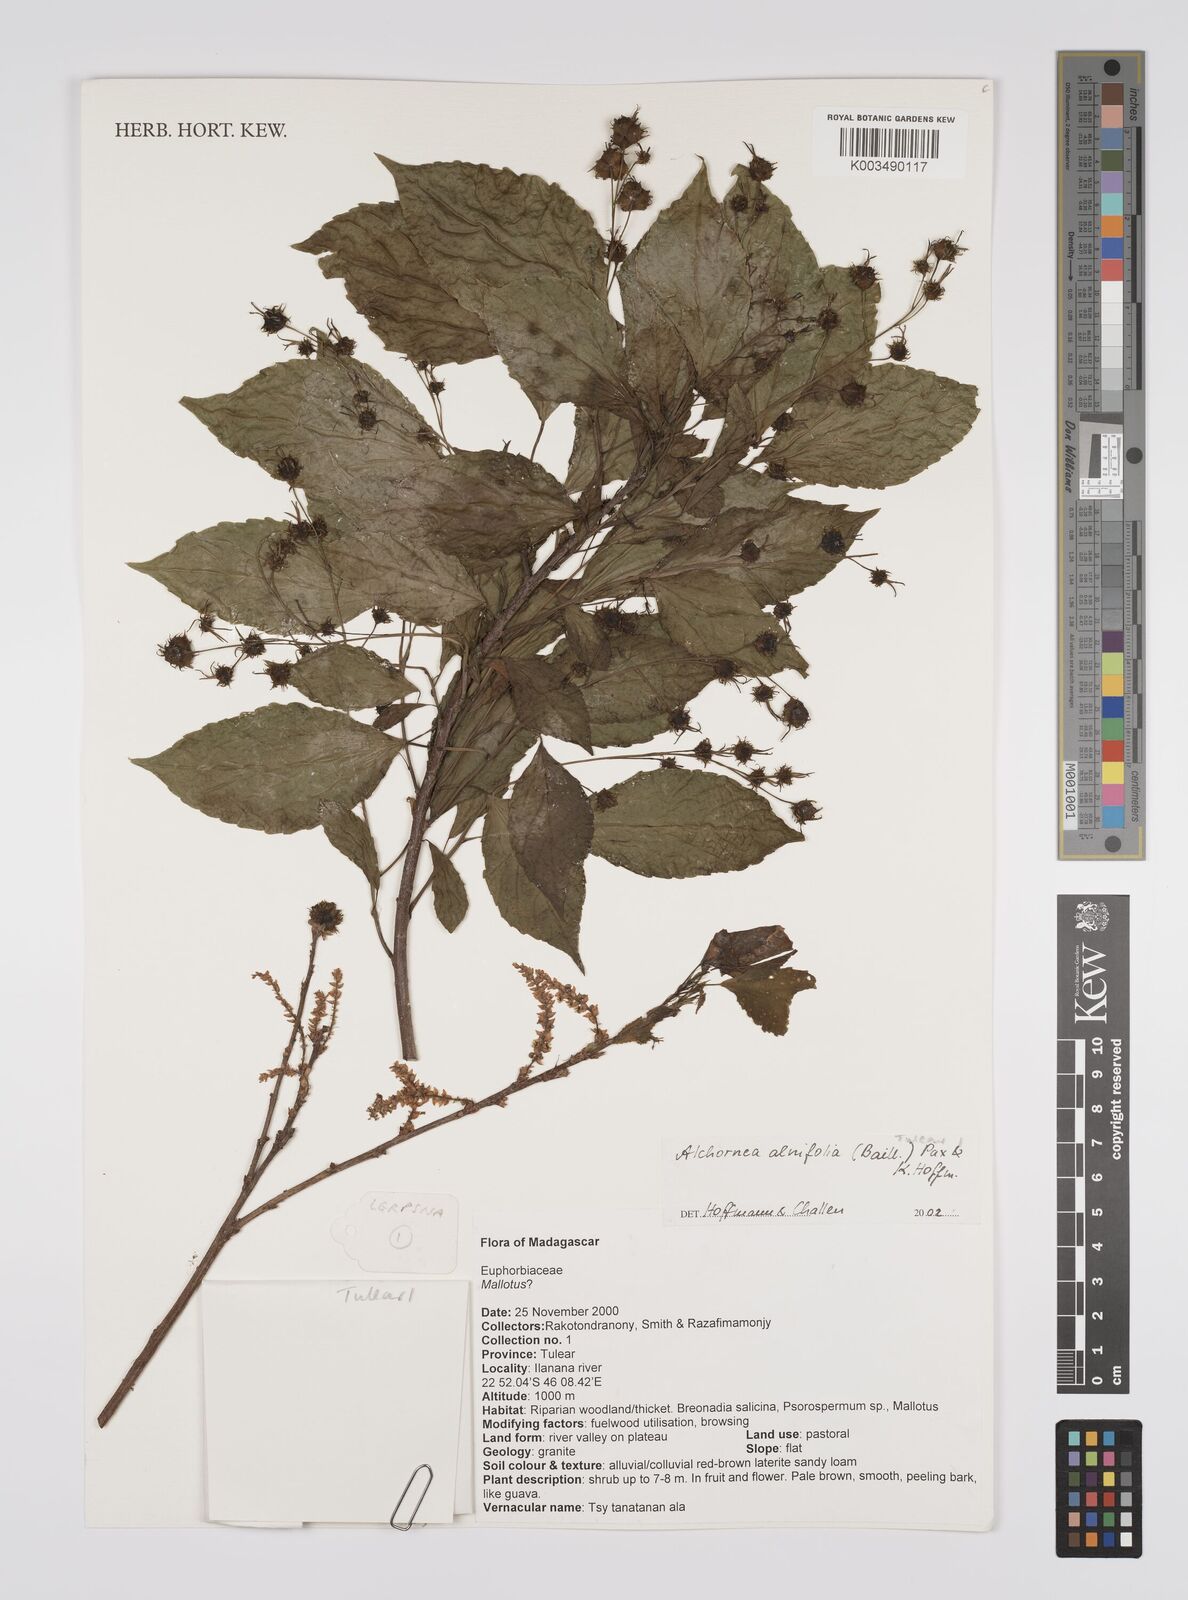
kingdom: Plantae
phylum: Tracheophyta
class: Magnoliopsida
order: Malpighiales
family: Euphorbiaceae
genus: Alchornea
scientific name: Alchornea alnifolia
